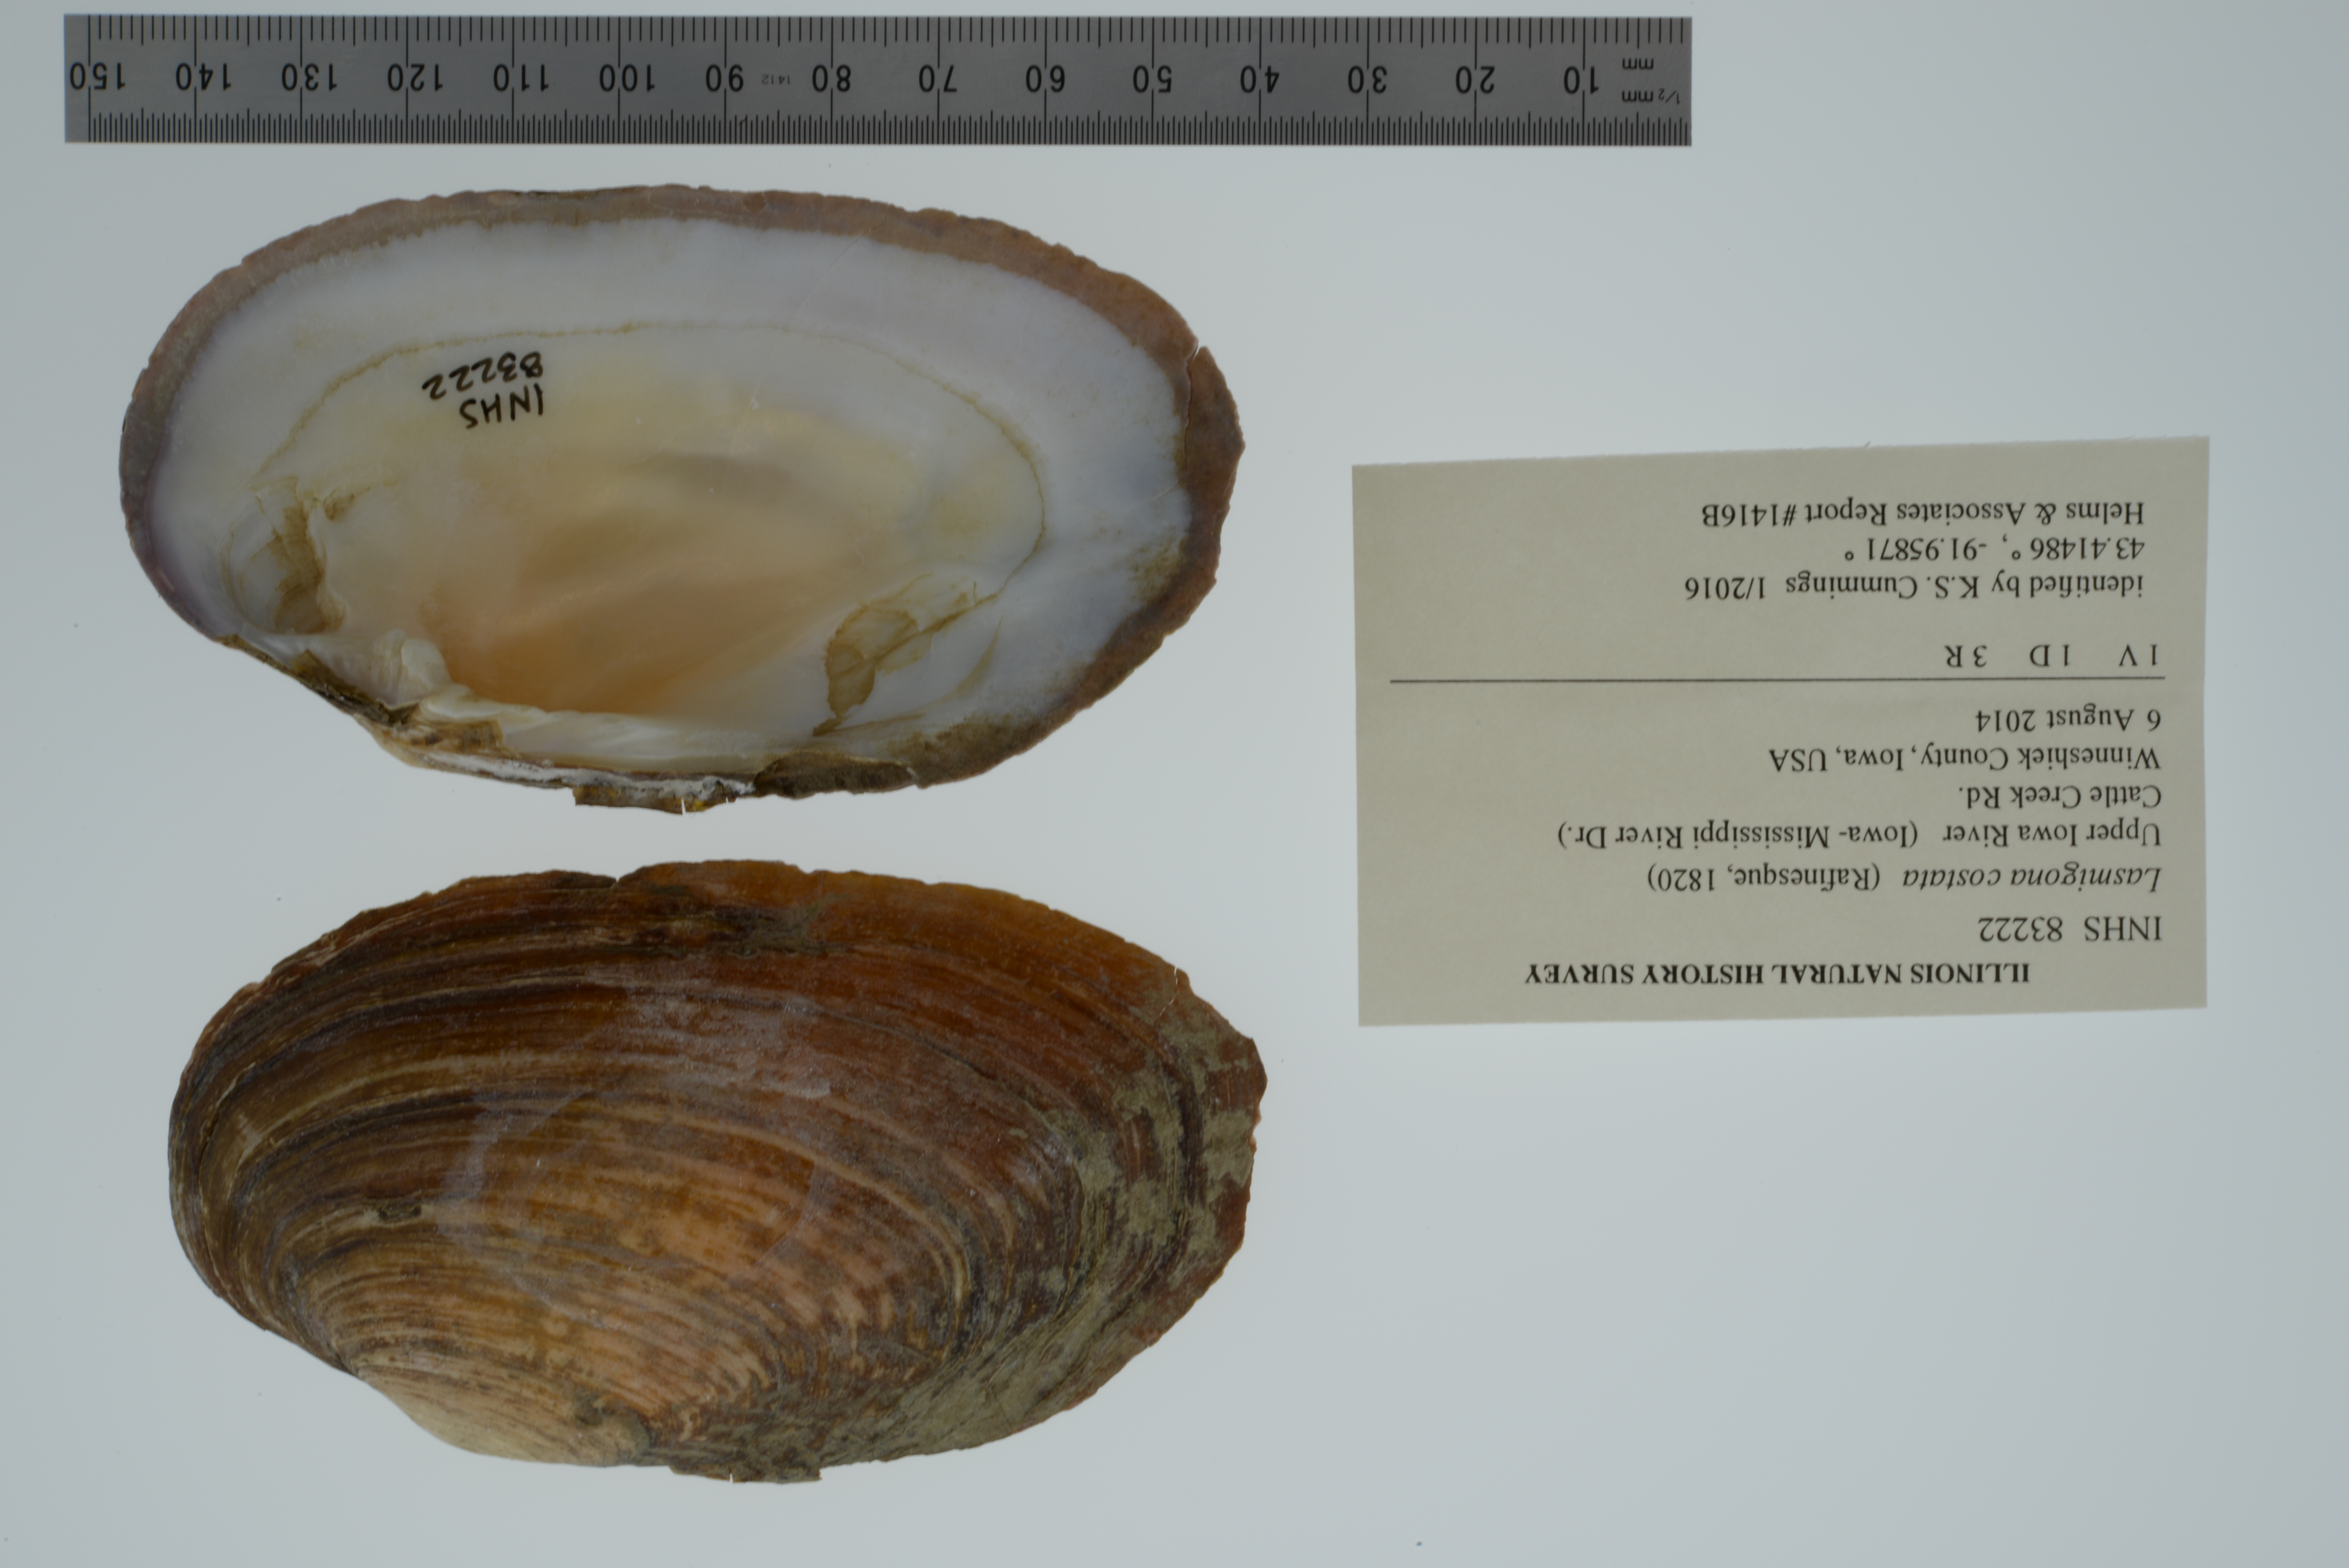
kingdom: Animalia
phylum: Mollusca
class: Bivalvia
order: Unionida
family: Unionidae
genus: Lasmigona
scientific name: Lasmigona costata
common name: Flutedshell
